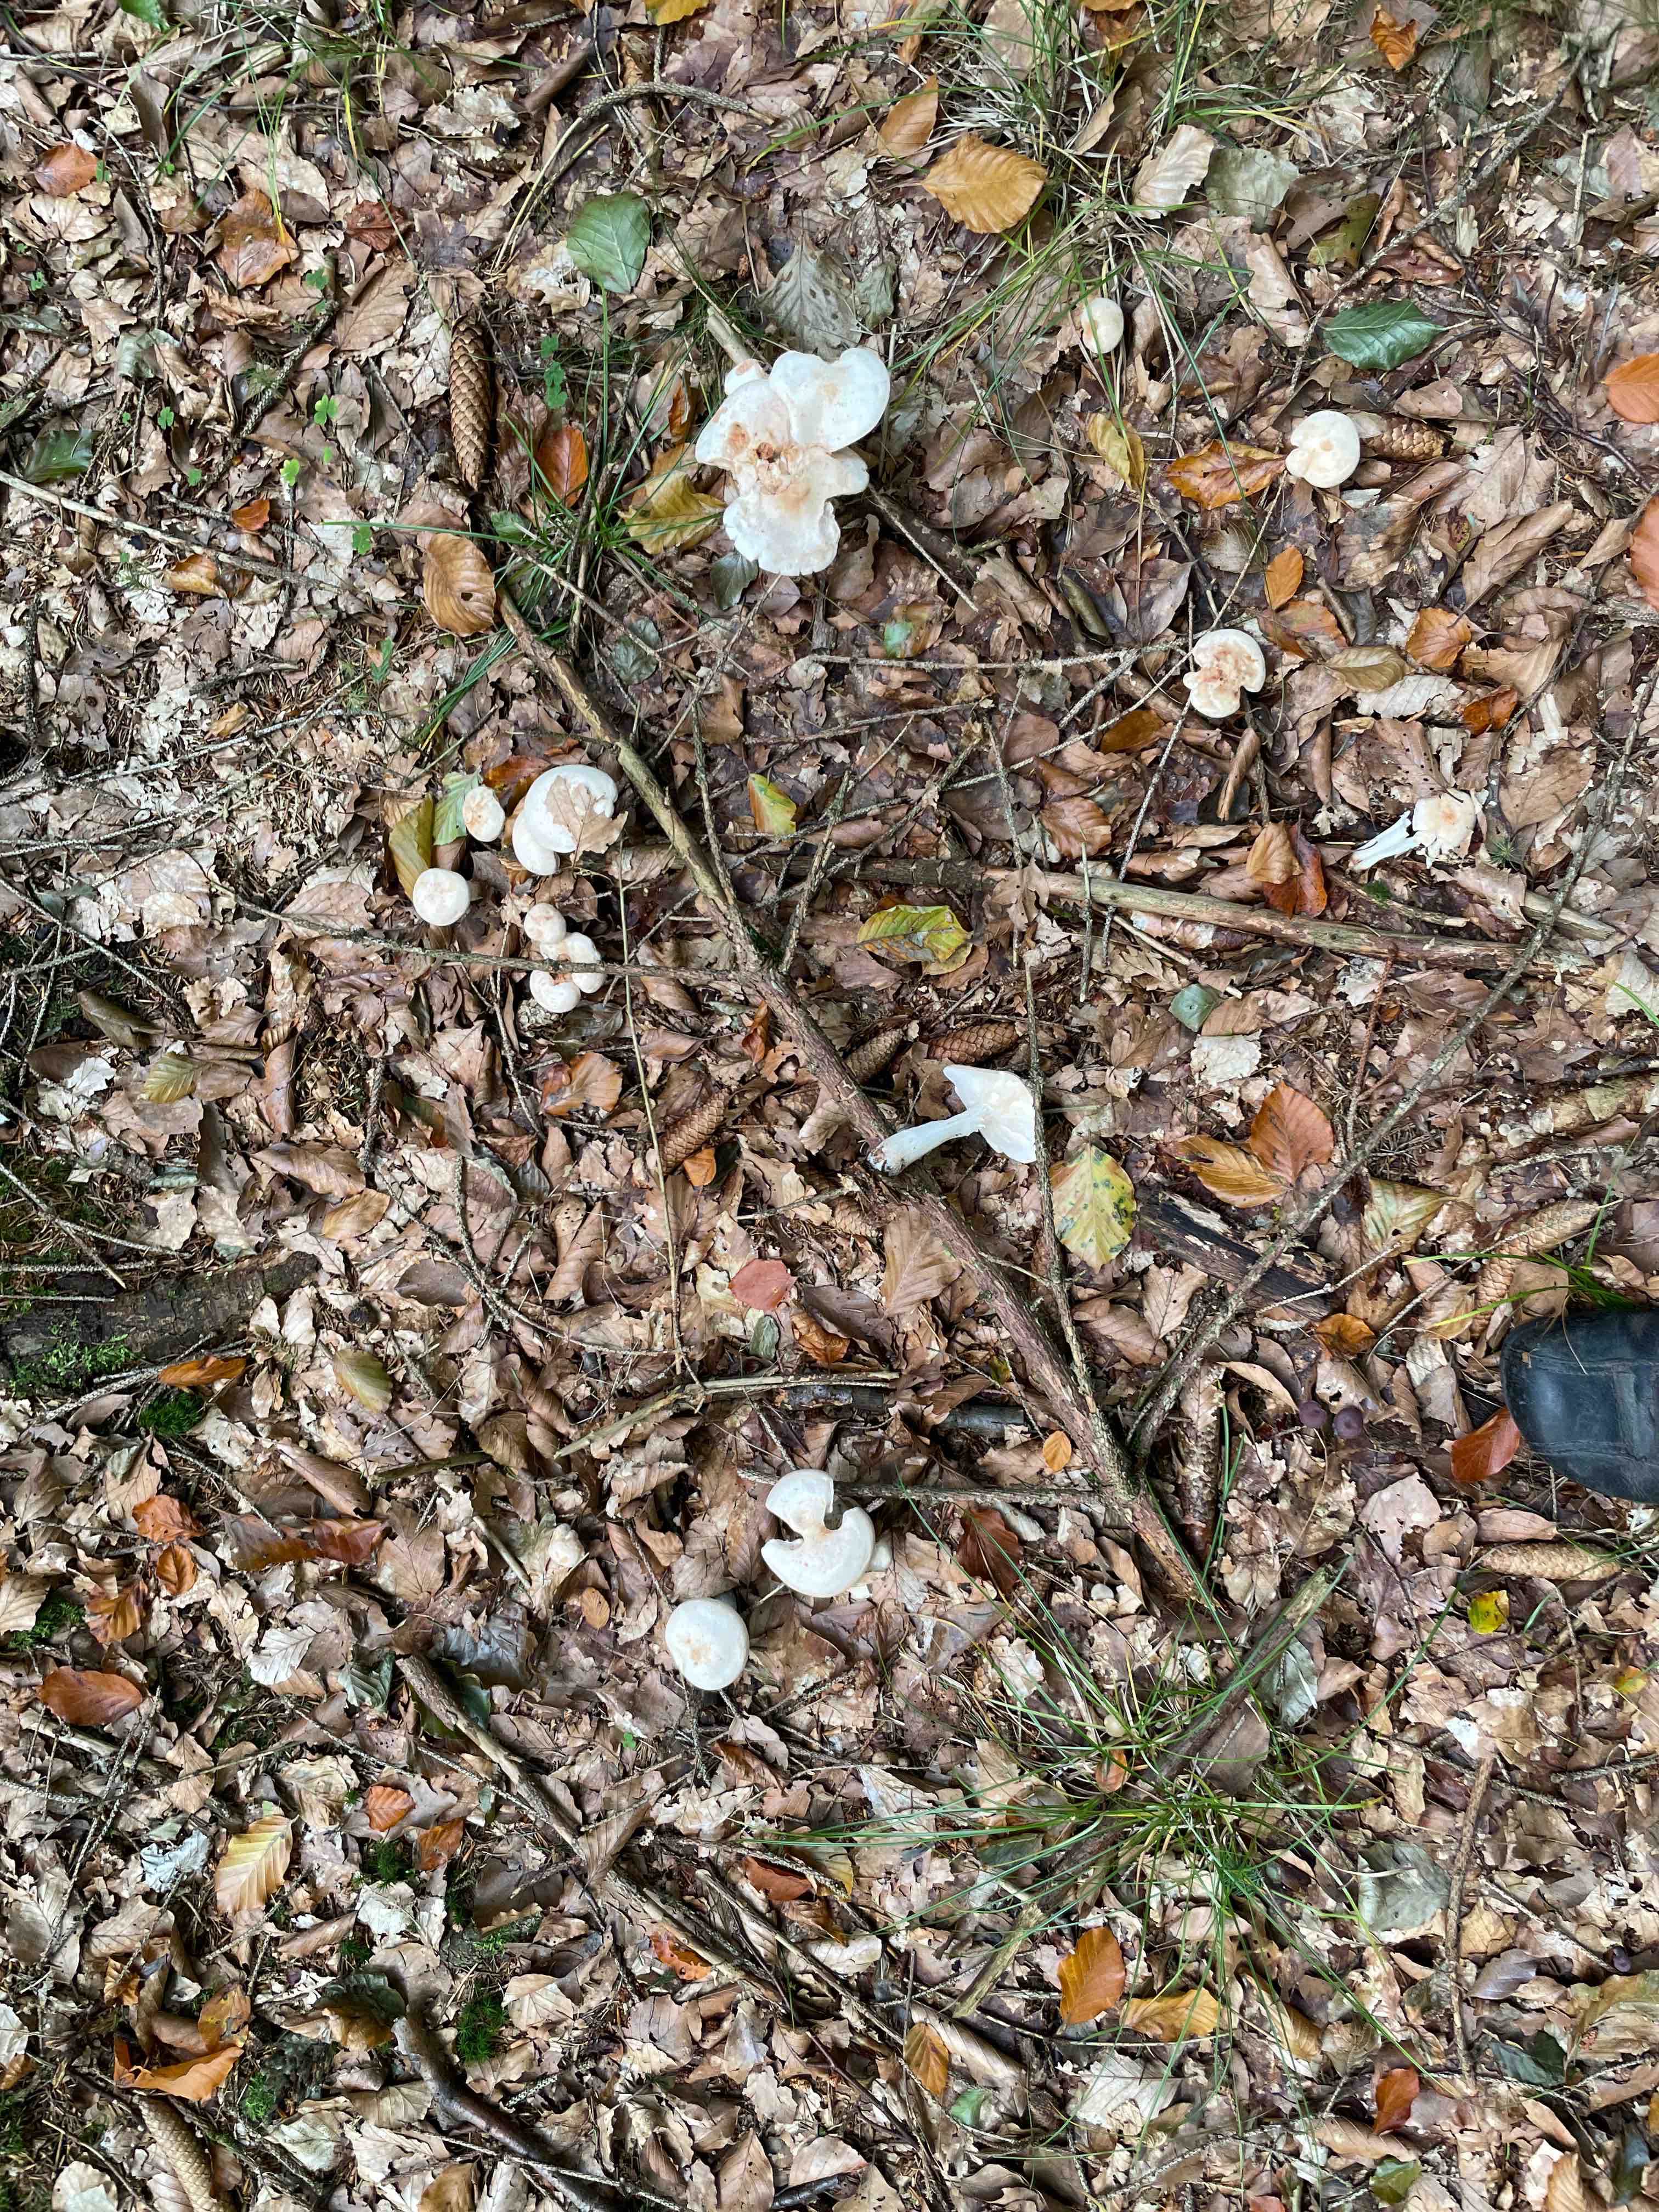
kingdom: Fungi
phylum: Basidiomycota
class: Agaricomycetes
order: Agaricales
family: Omphalotaceae
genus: Rhodocollybia
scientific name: Rhodocollybia maculata
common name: plettet fladhat
